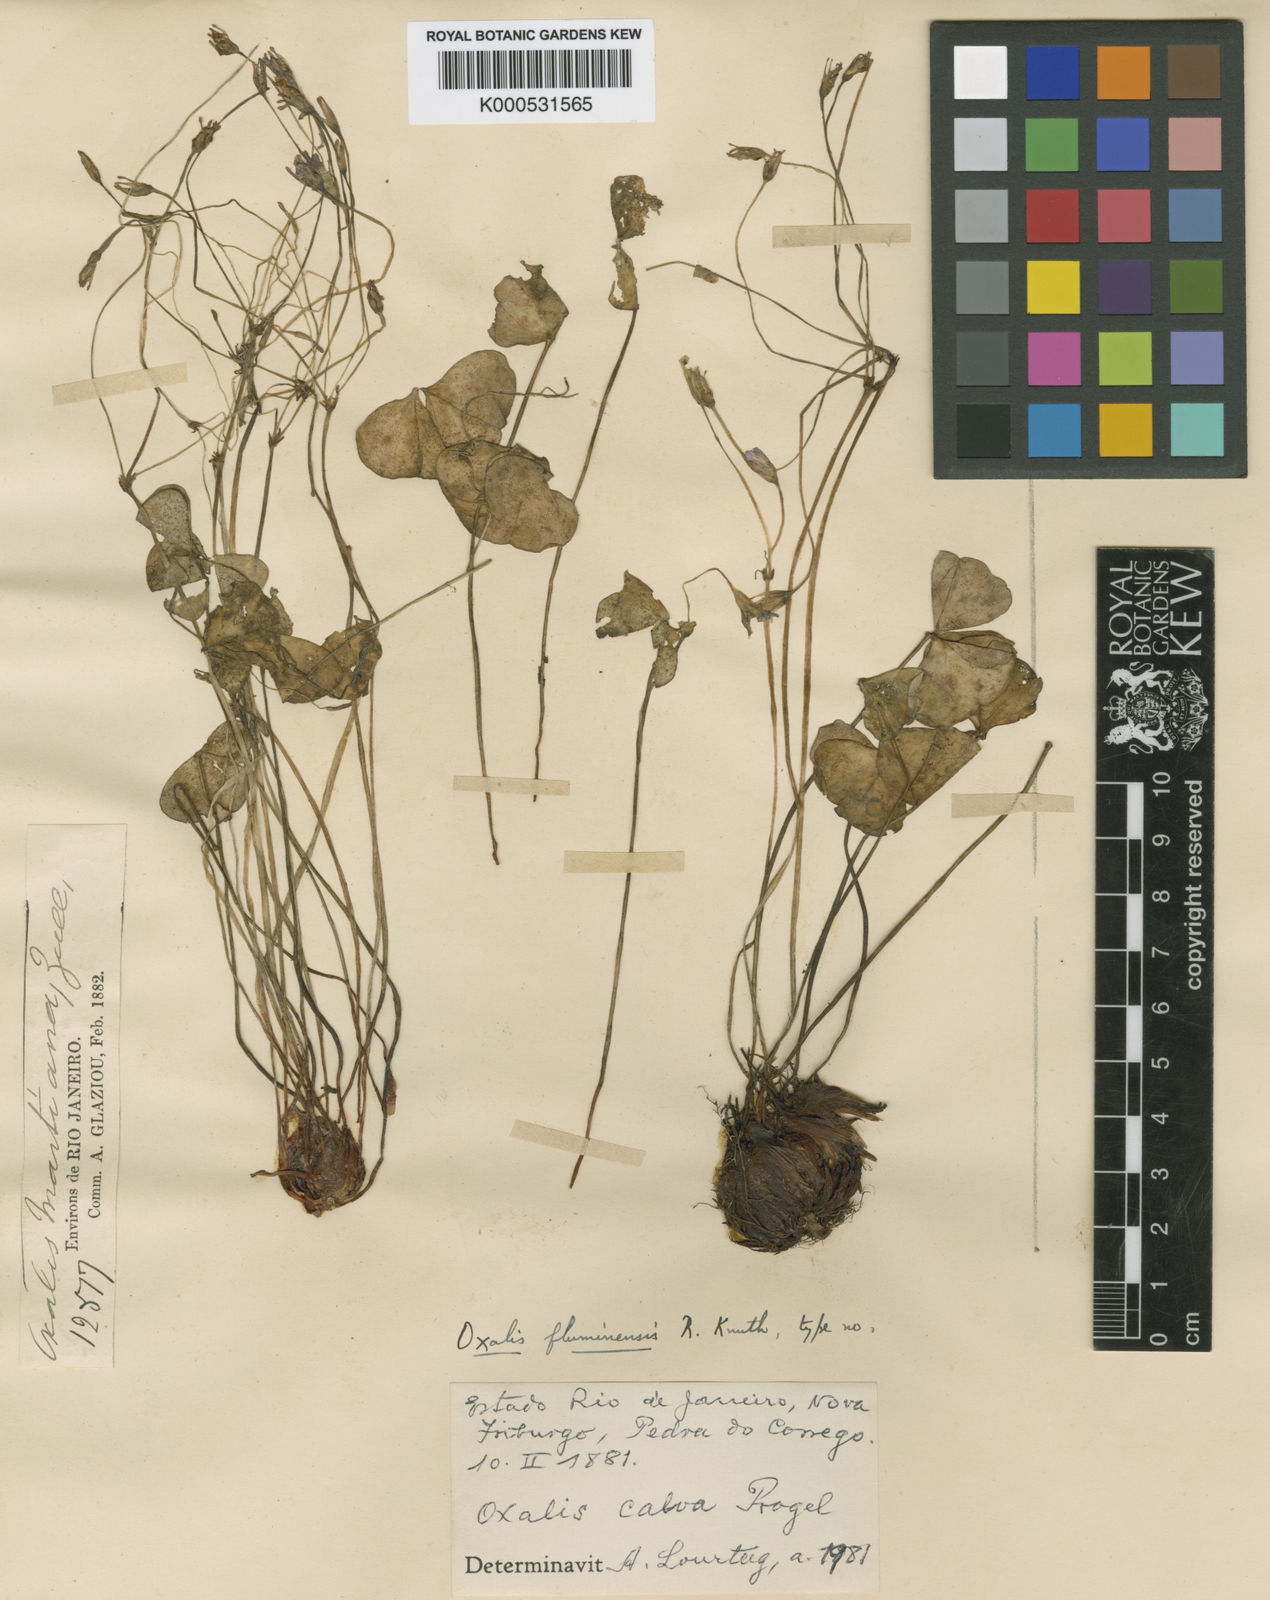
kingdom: Plantae
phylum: Tracheophyta
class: Magnoliopsida
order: Oxalidales
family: Oxalidaceae
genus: Oxalis
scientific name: Oxalis calva
